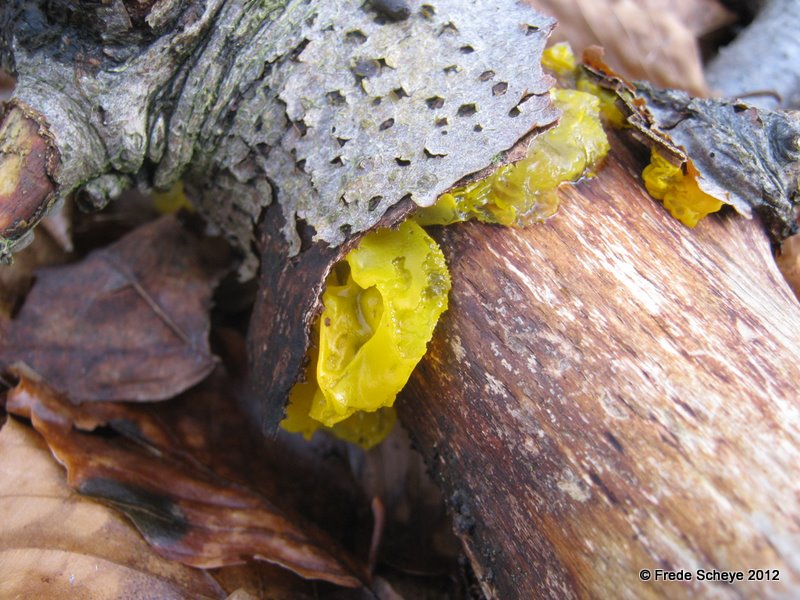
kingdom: Fungi
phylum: Basidiomycota
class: Tremellomycetes
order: Tremellales
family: Tremellaceae
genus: Tremella
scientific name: Tremella mesenterica
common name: gul bævresvamp
